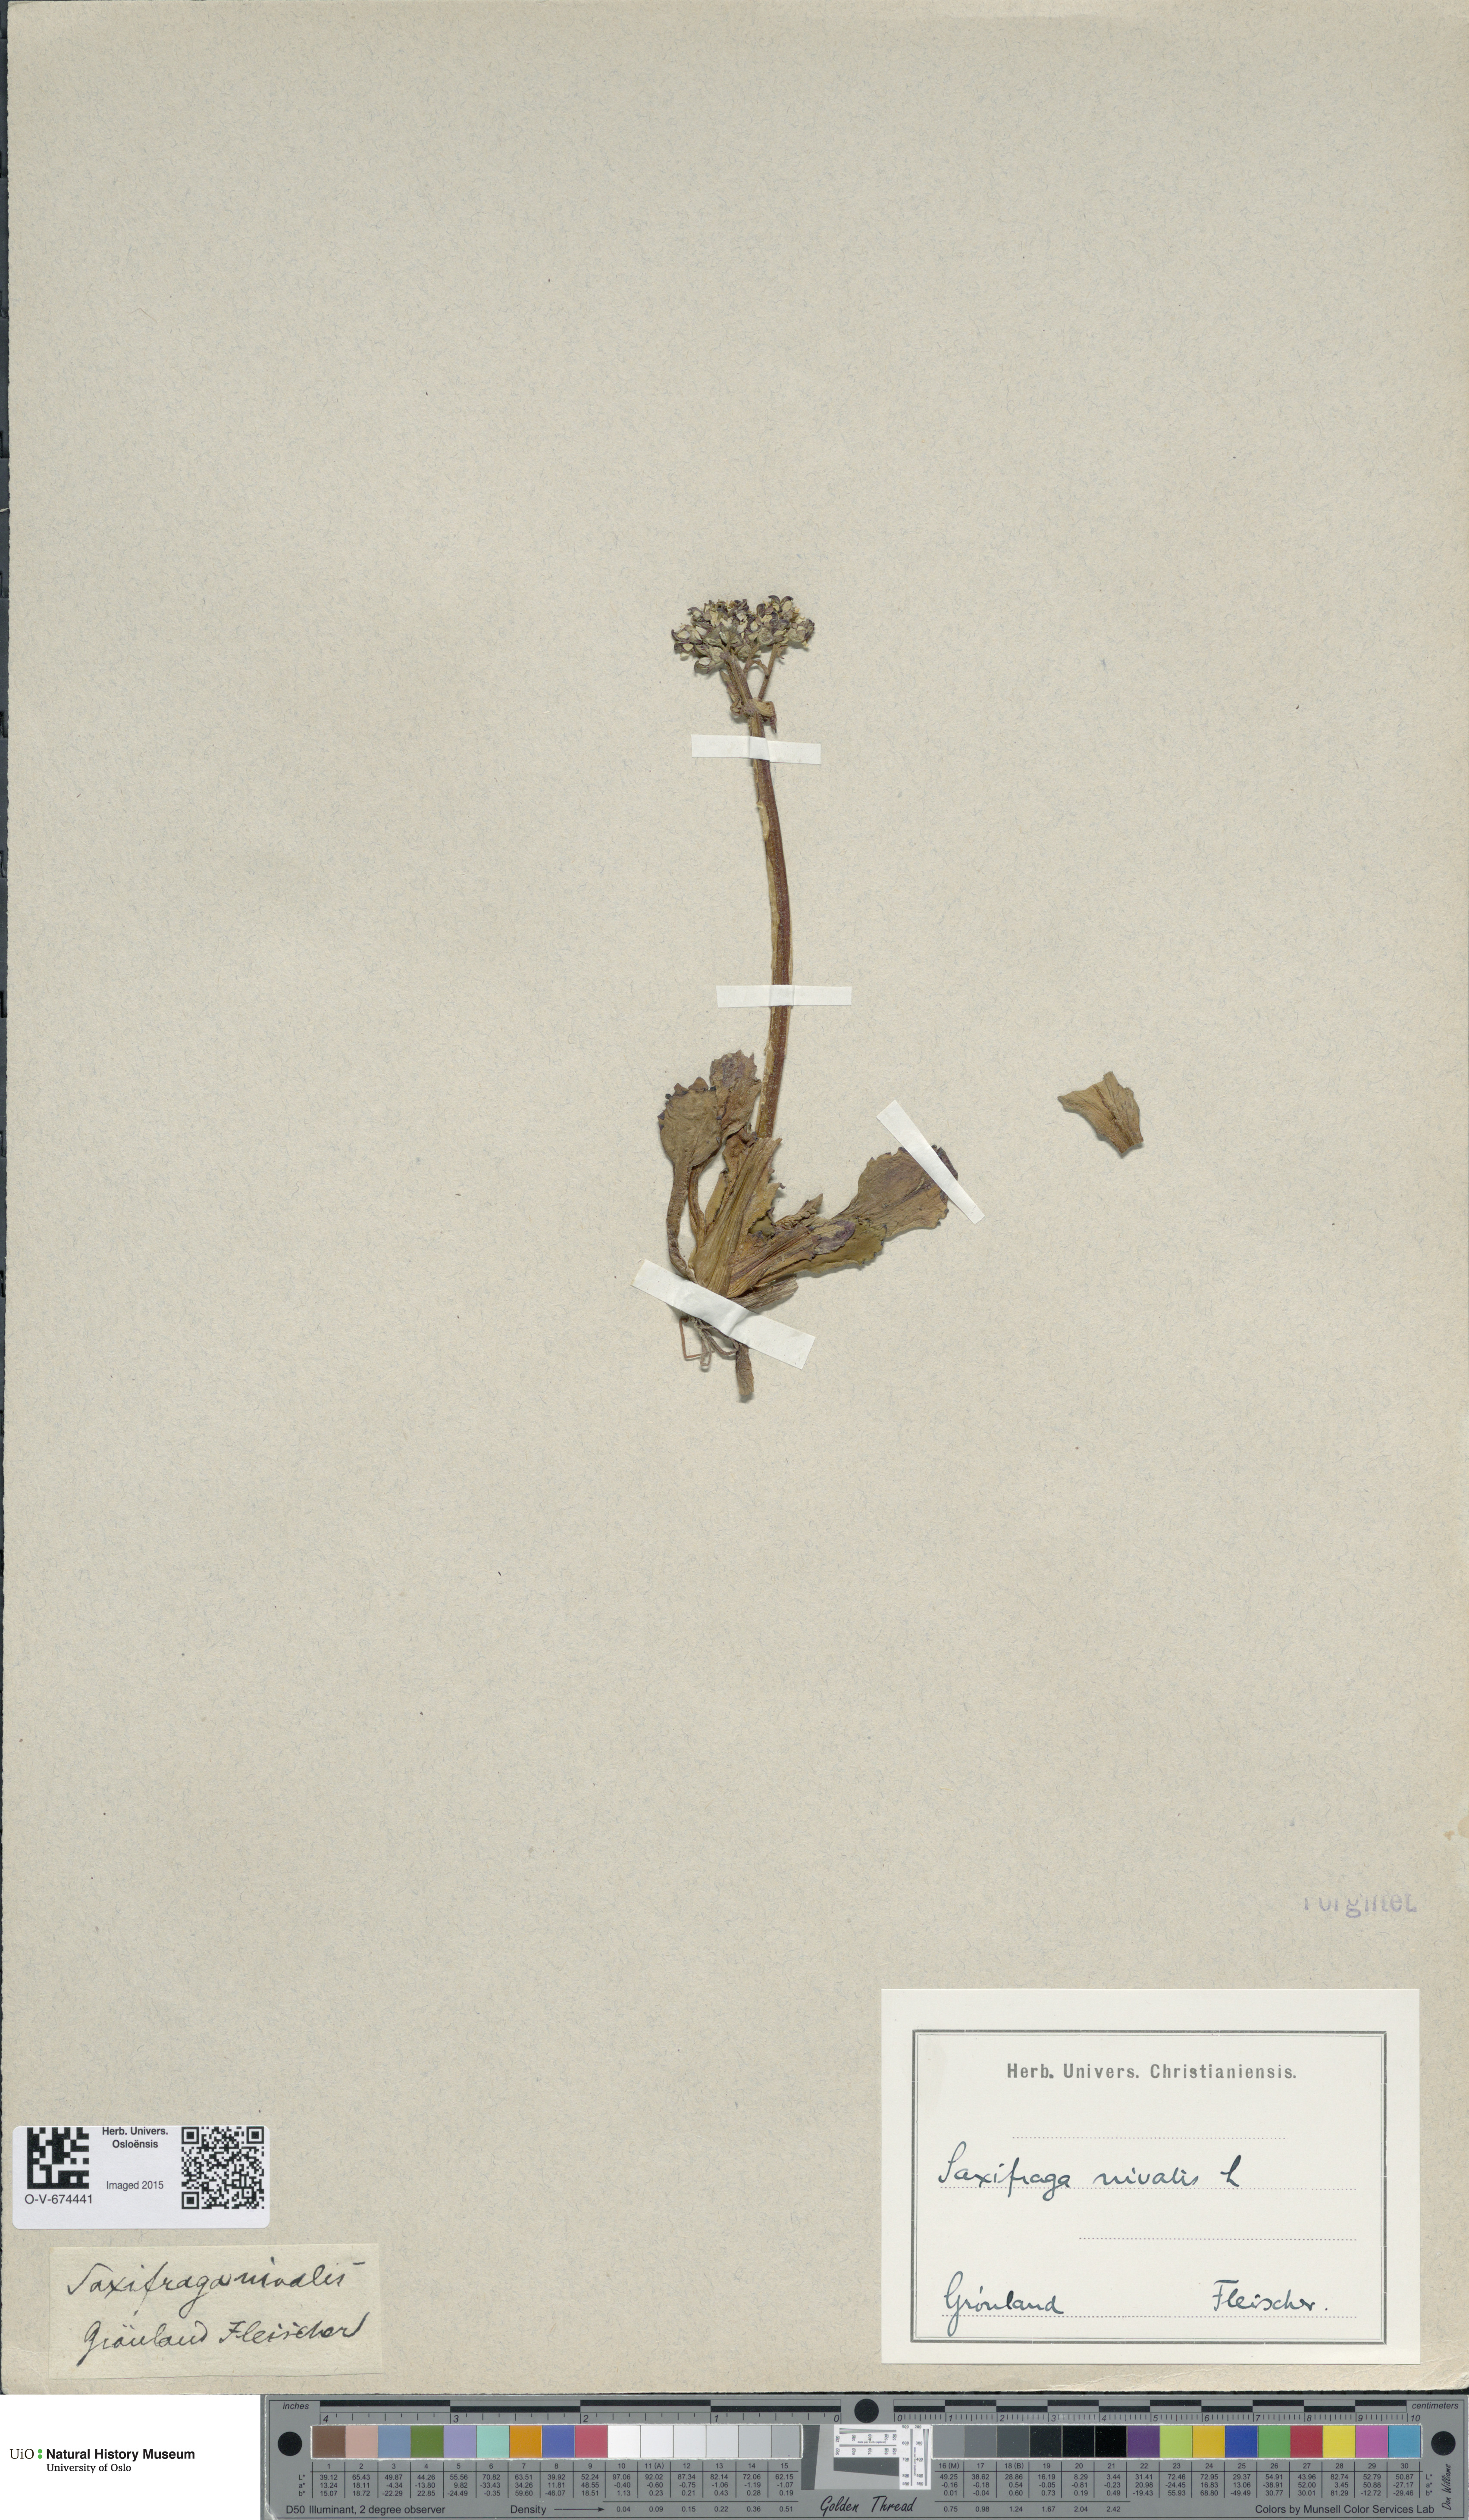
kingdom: Plantae
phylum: Tracheophyta
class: Magnoliopsida
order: Saxifragales
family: Saxifragaceae
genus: Micranthes
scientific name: Micranthes nivalis
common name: Alpine saxifrage
